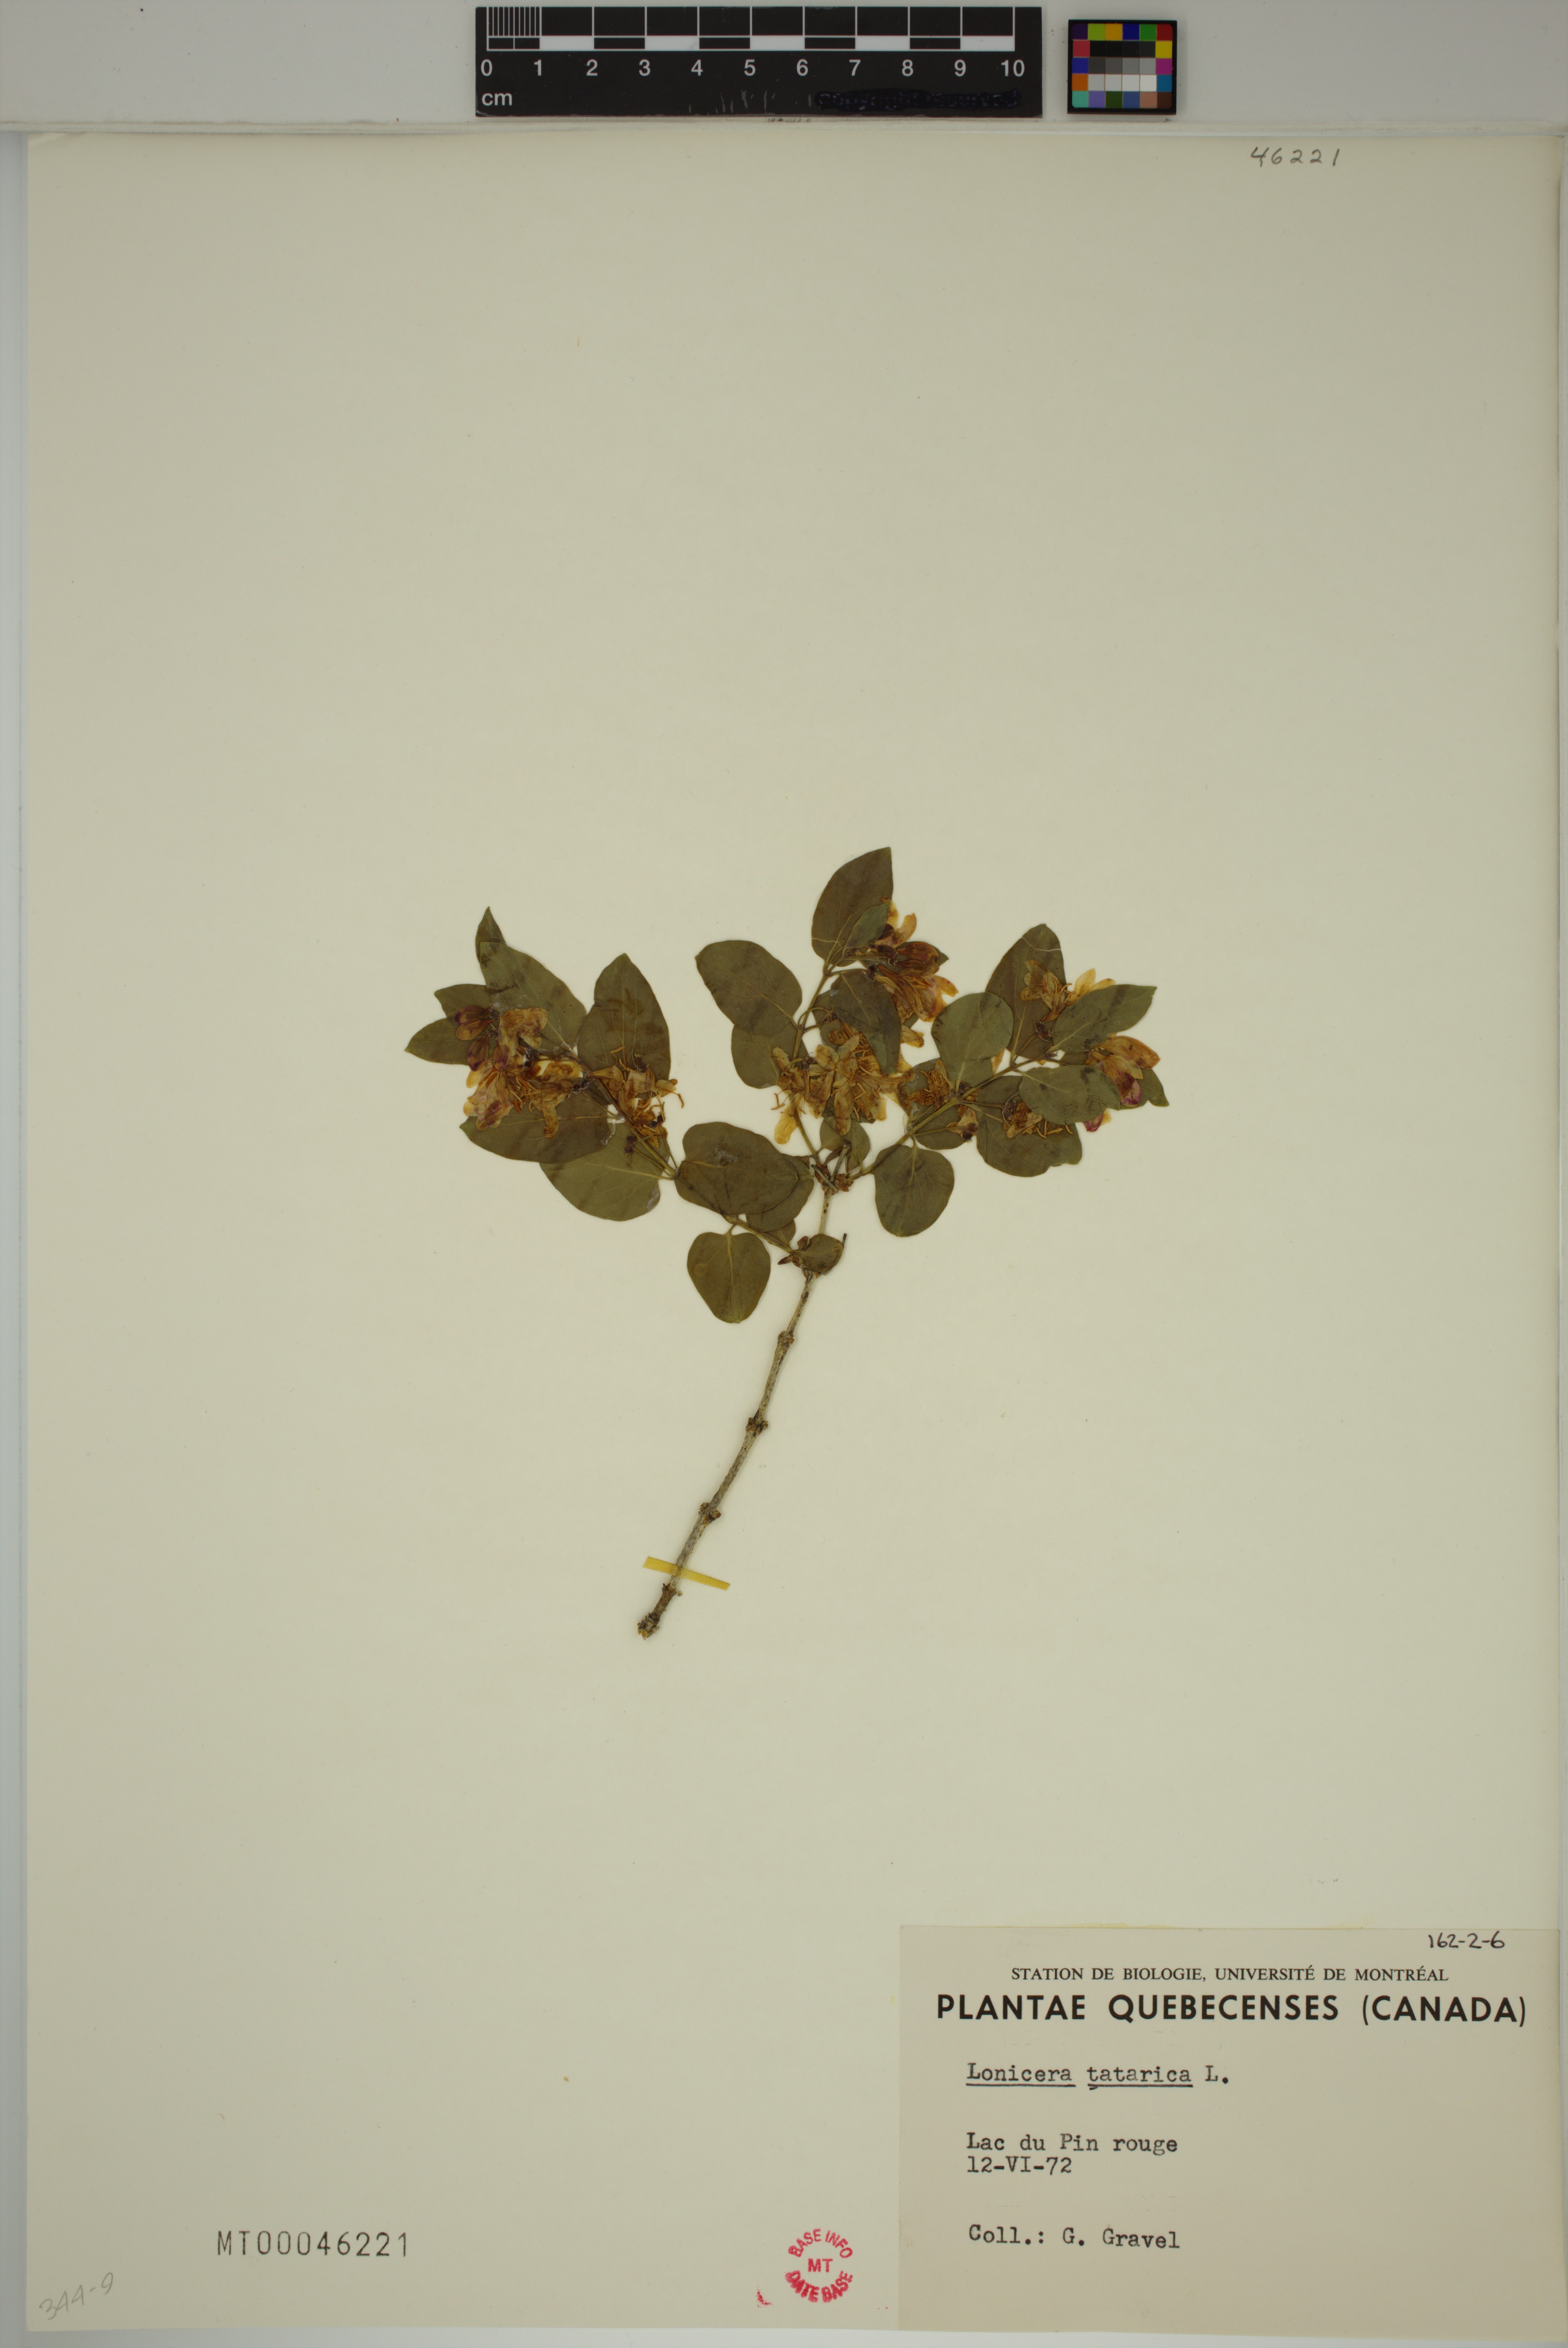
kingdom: Plantae
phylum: Tracheophyta
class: Magnoliopsida
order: Dipsacales
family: Caprifoliaceae
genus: Lonicera
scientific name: Lonicera tatarica
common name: Tatarian honeysuckle
